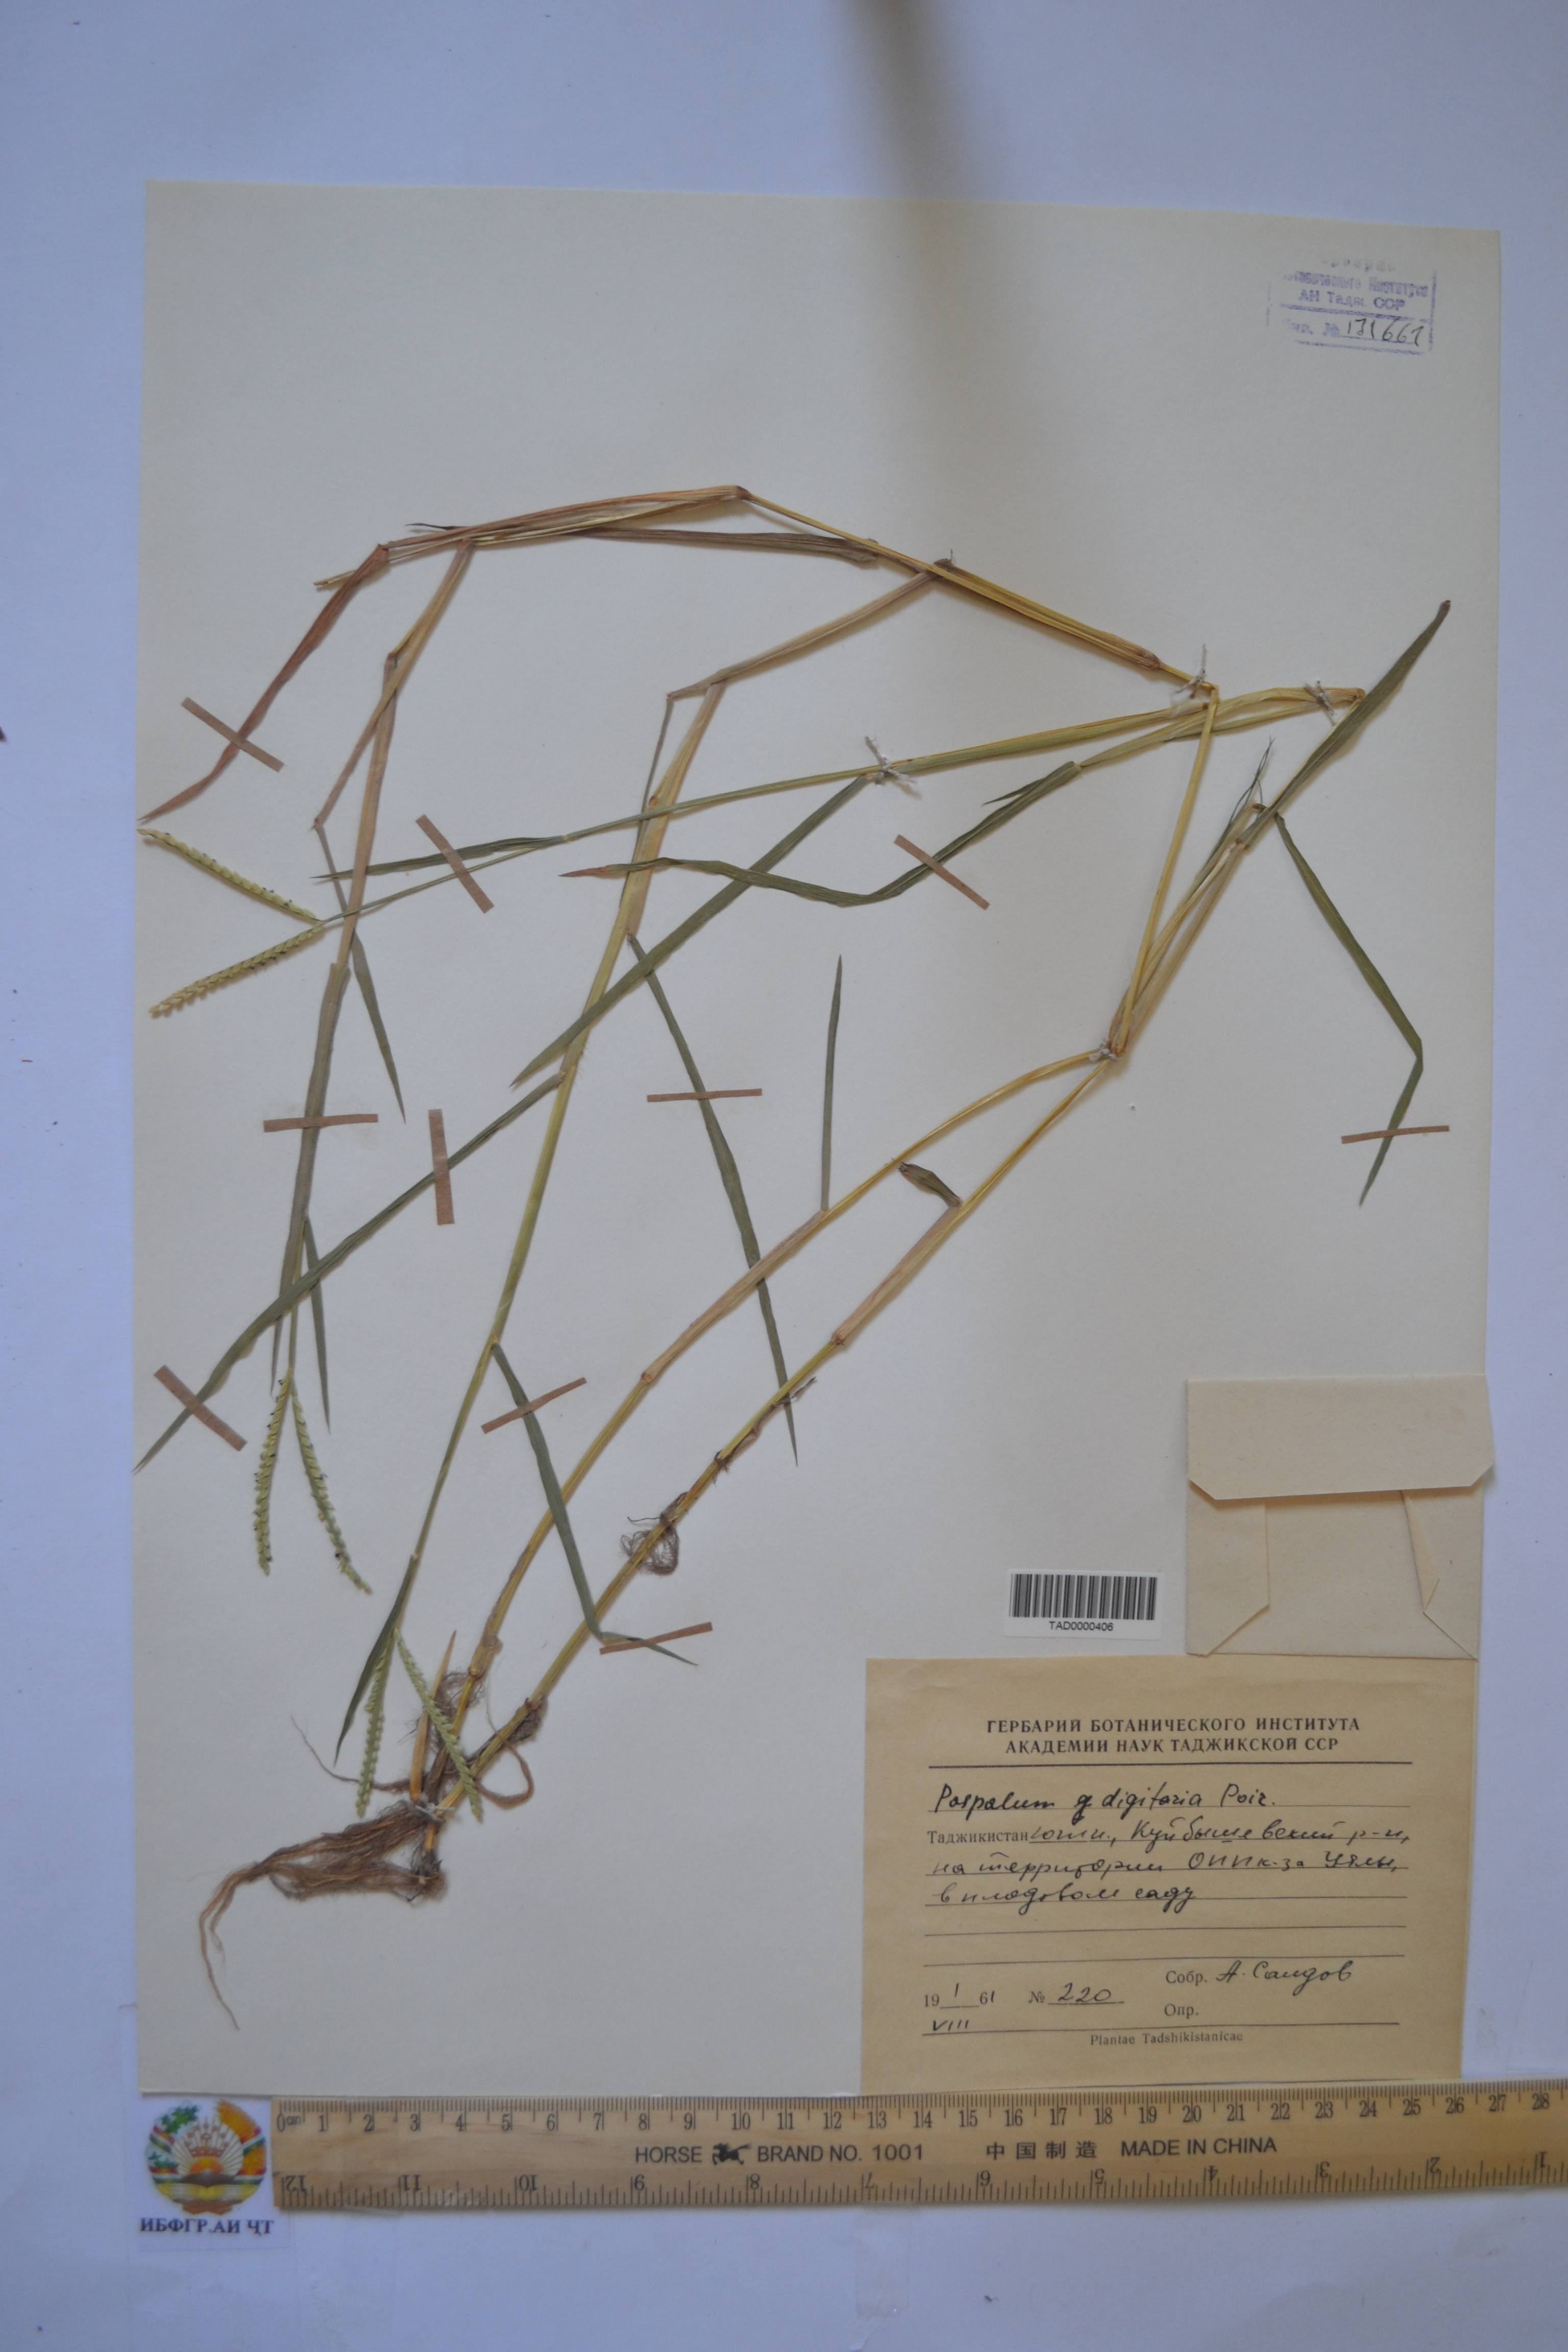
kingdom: Plantae
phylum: Tracheophyta
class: Liliopsida
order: Poales
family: Poaceae
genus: Paspalum
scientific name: Paspalum distichum
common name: Knotgrass
